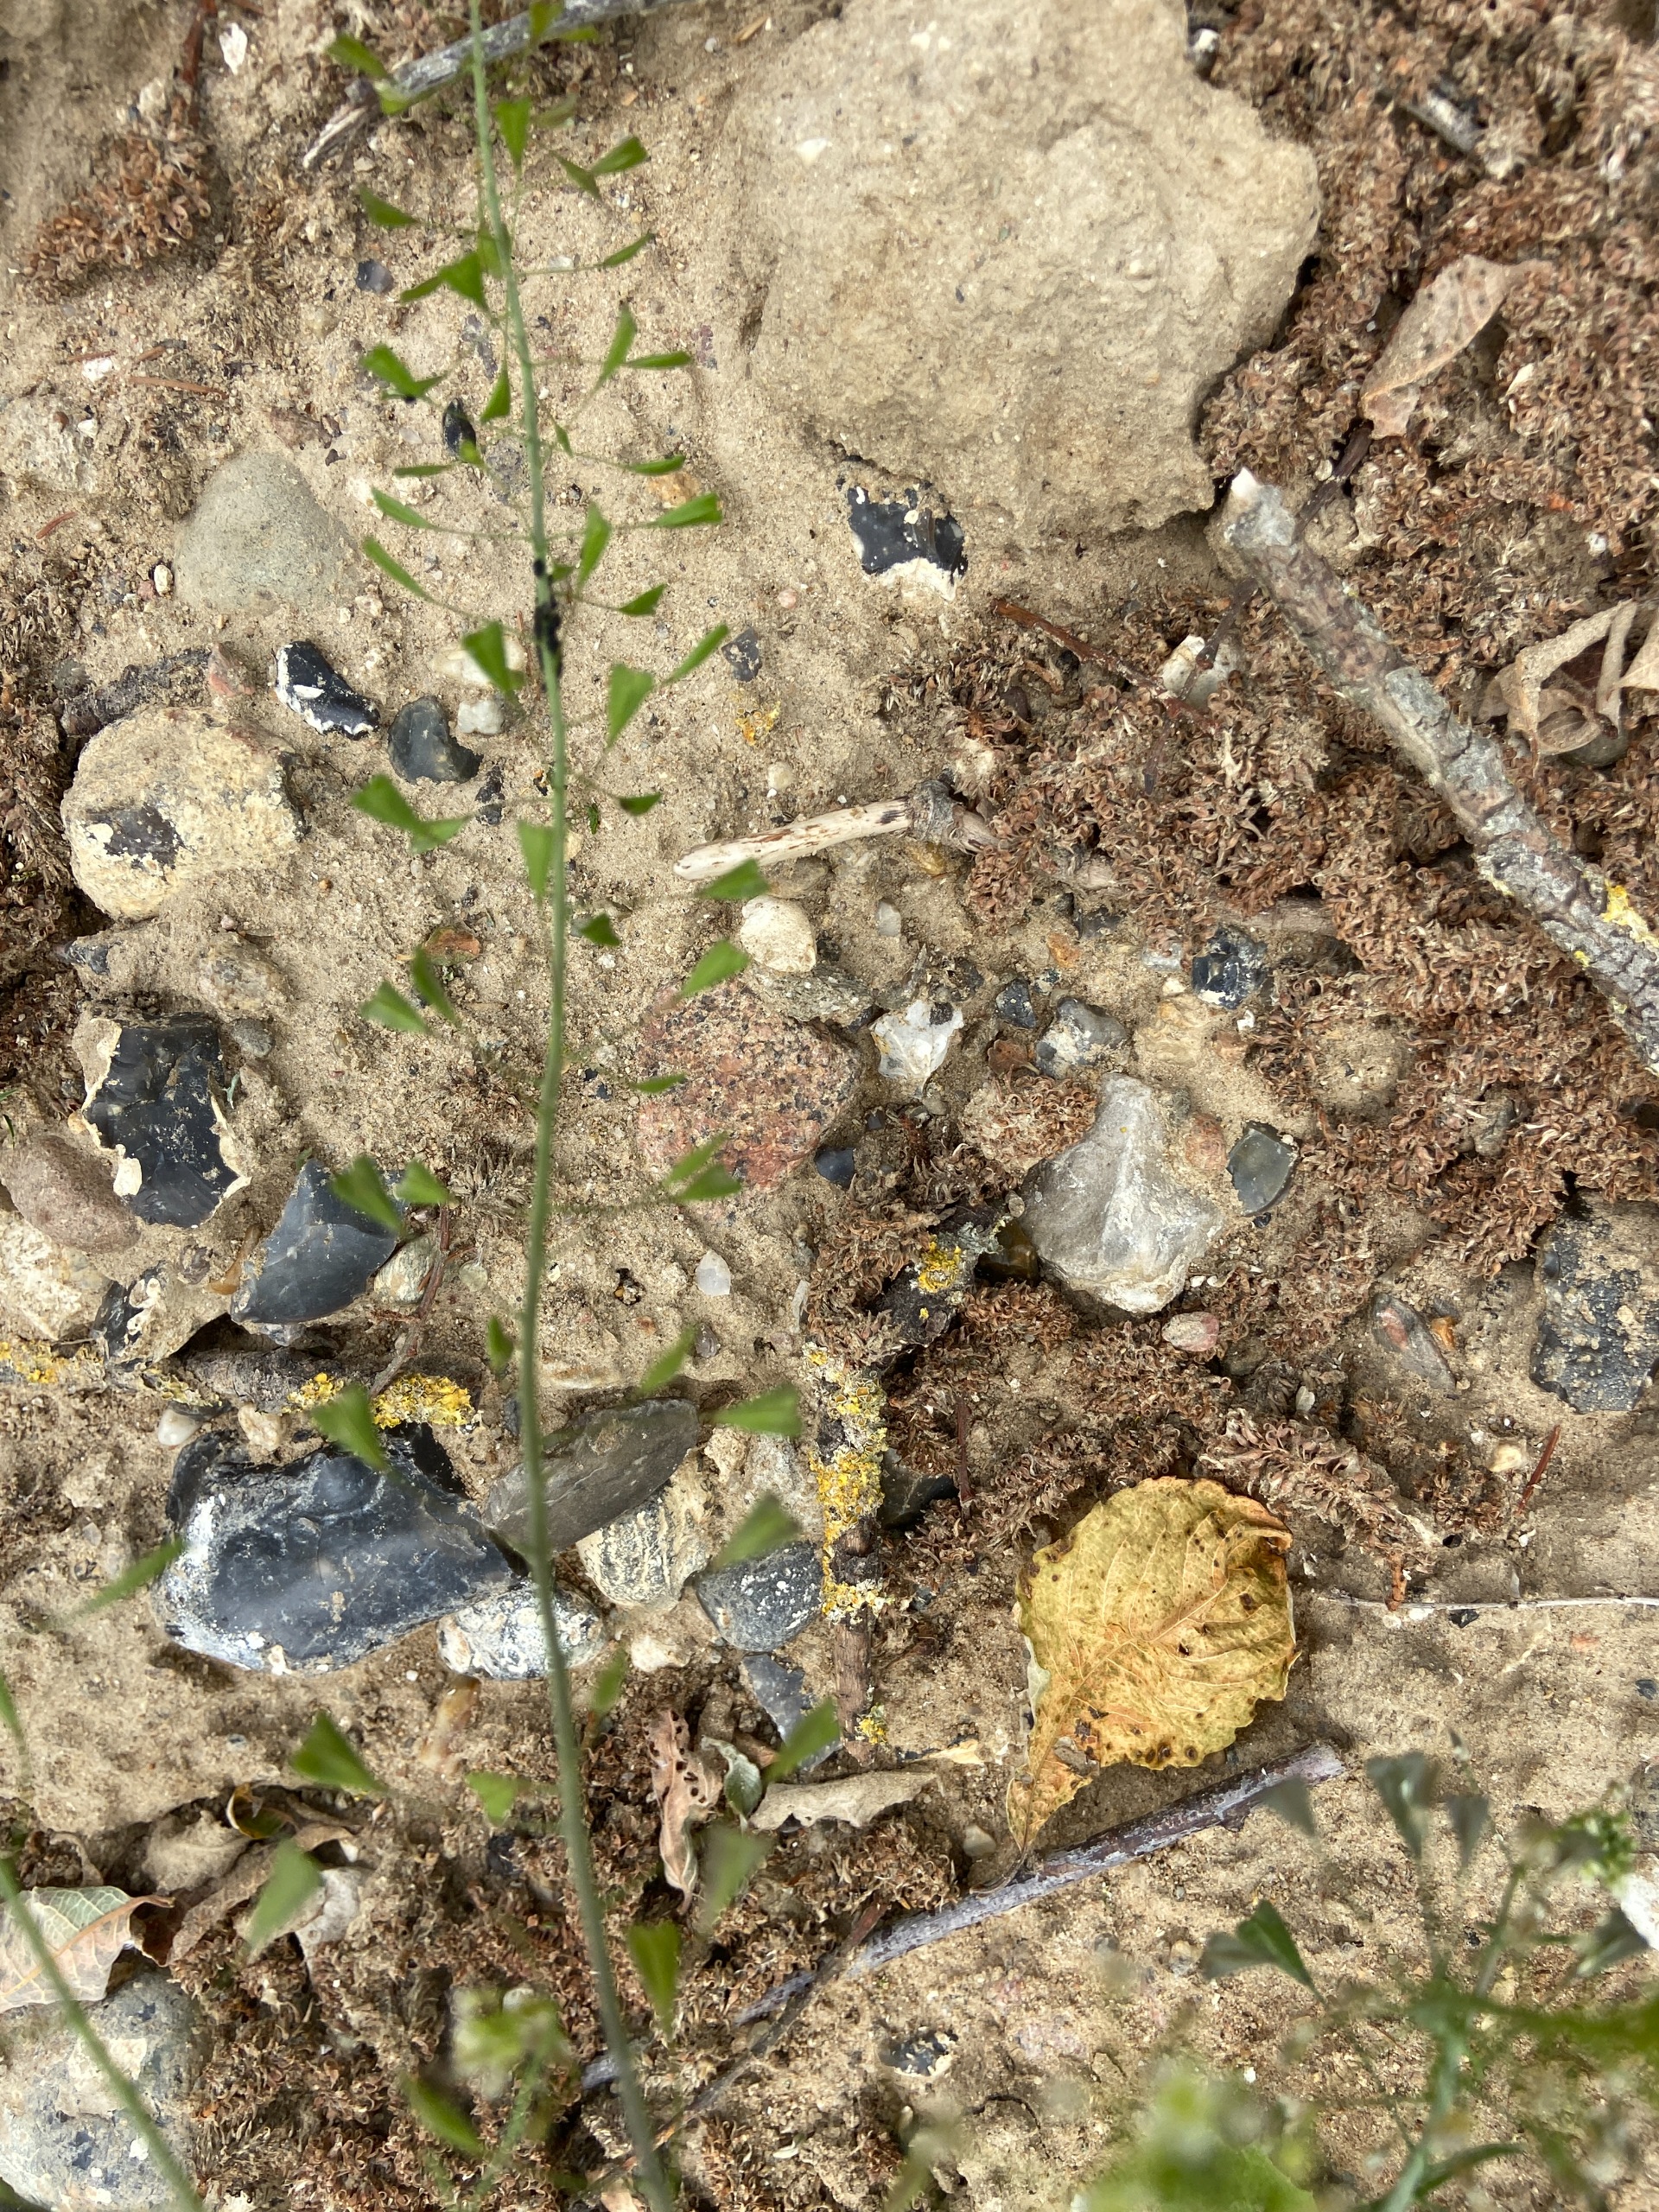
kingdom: Plantae
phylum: Tracheophyta
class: Magnoliopsida
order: Brassicales
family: Brassicaceae
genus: Capsella
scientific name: Capsella bursa-pastoris
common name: Hyrdetaske
